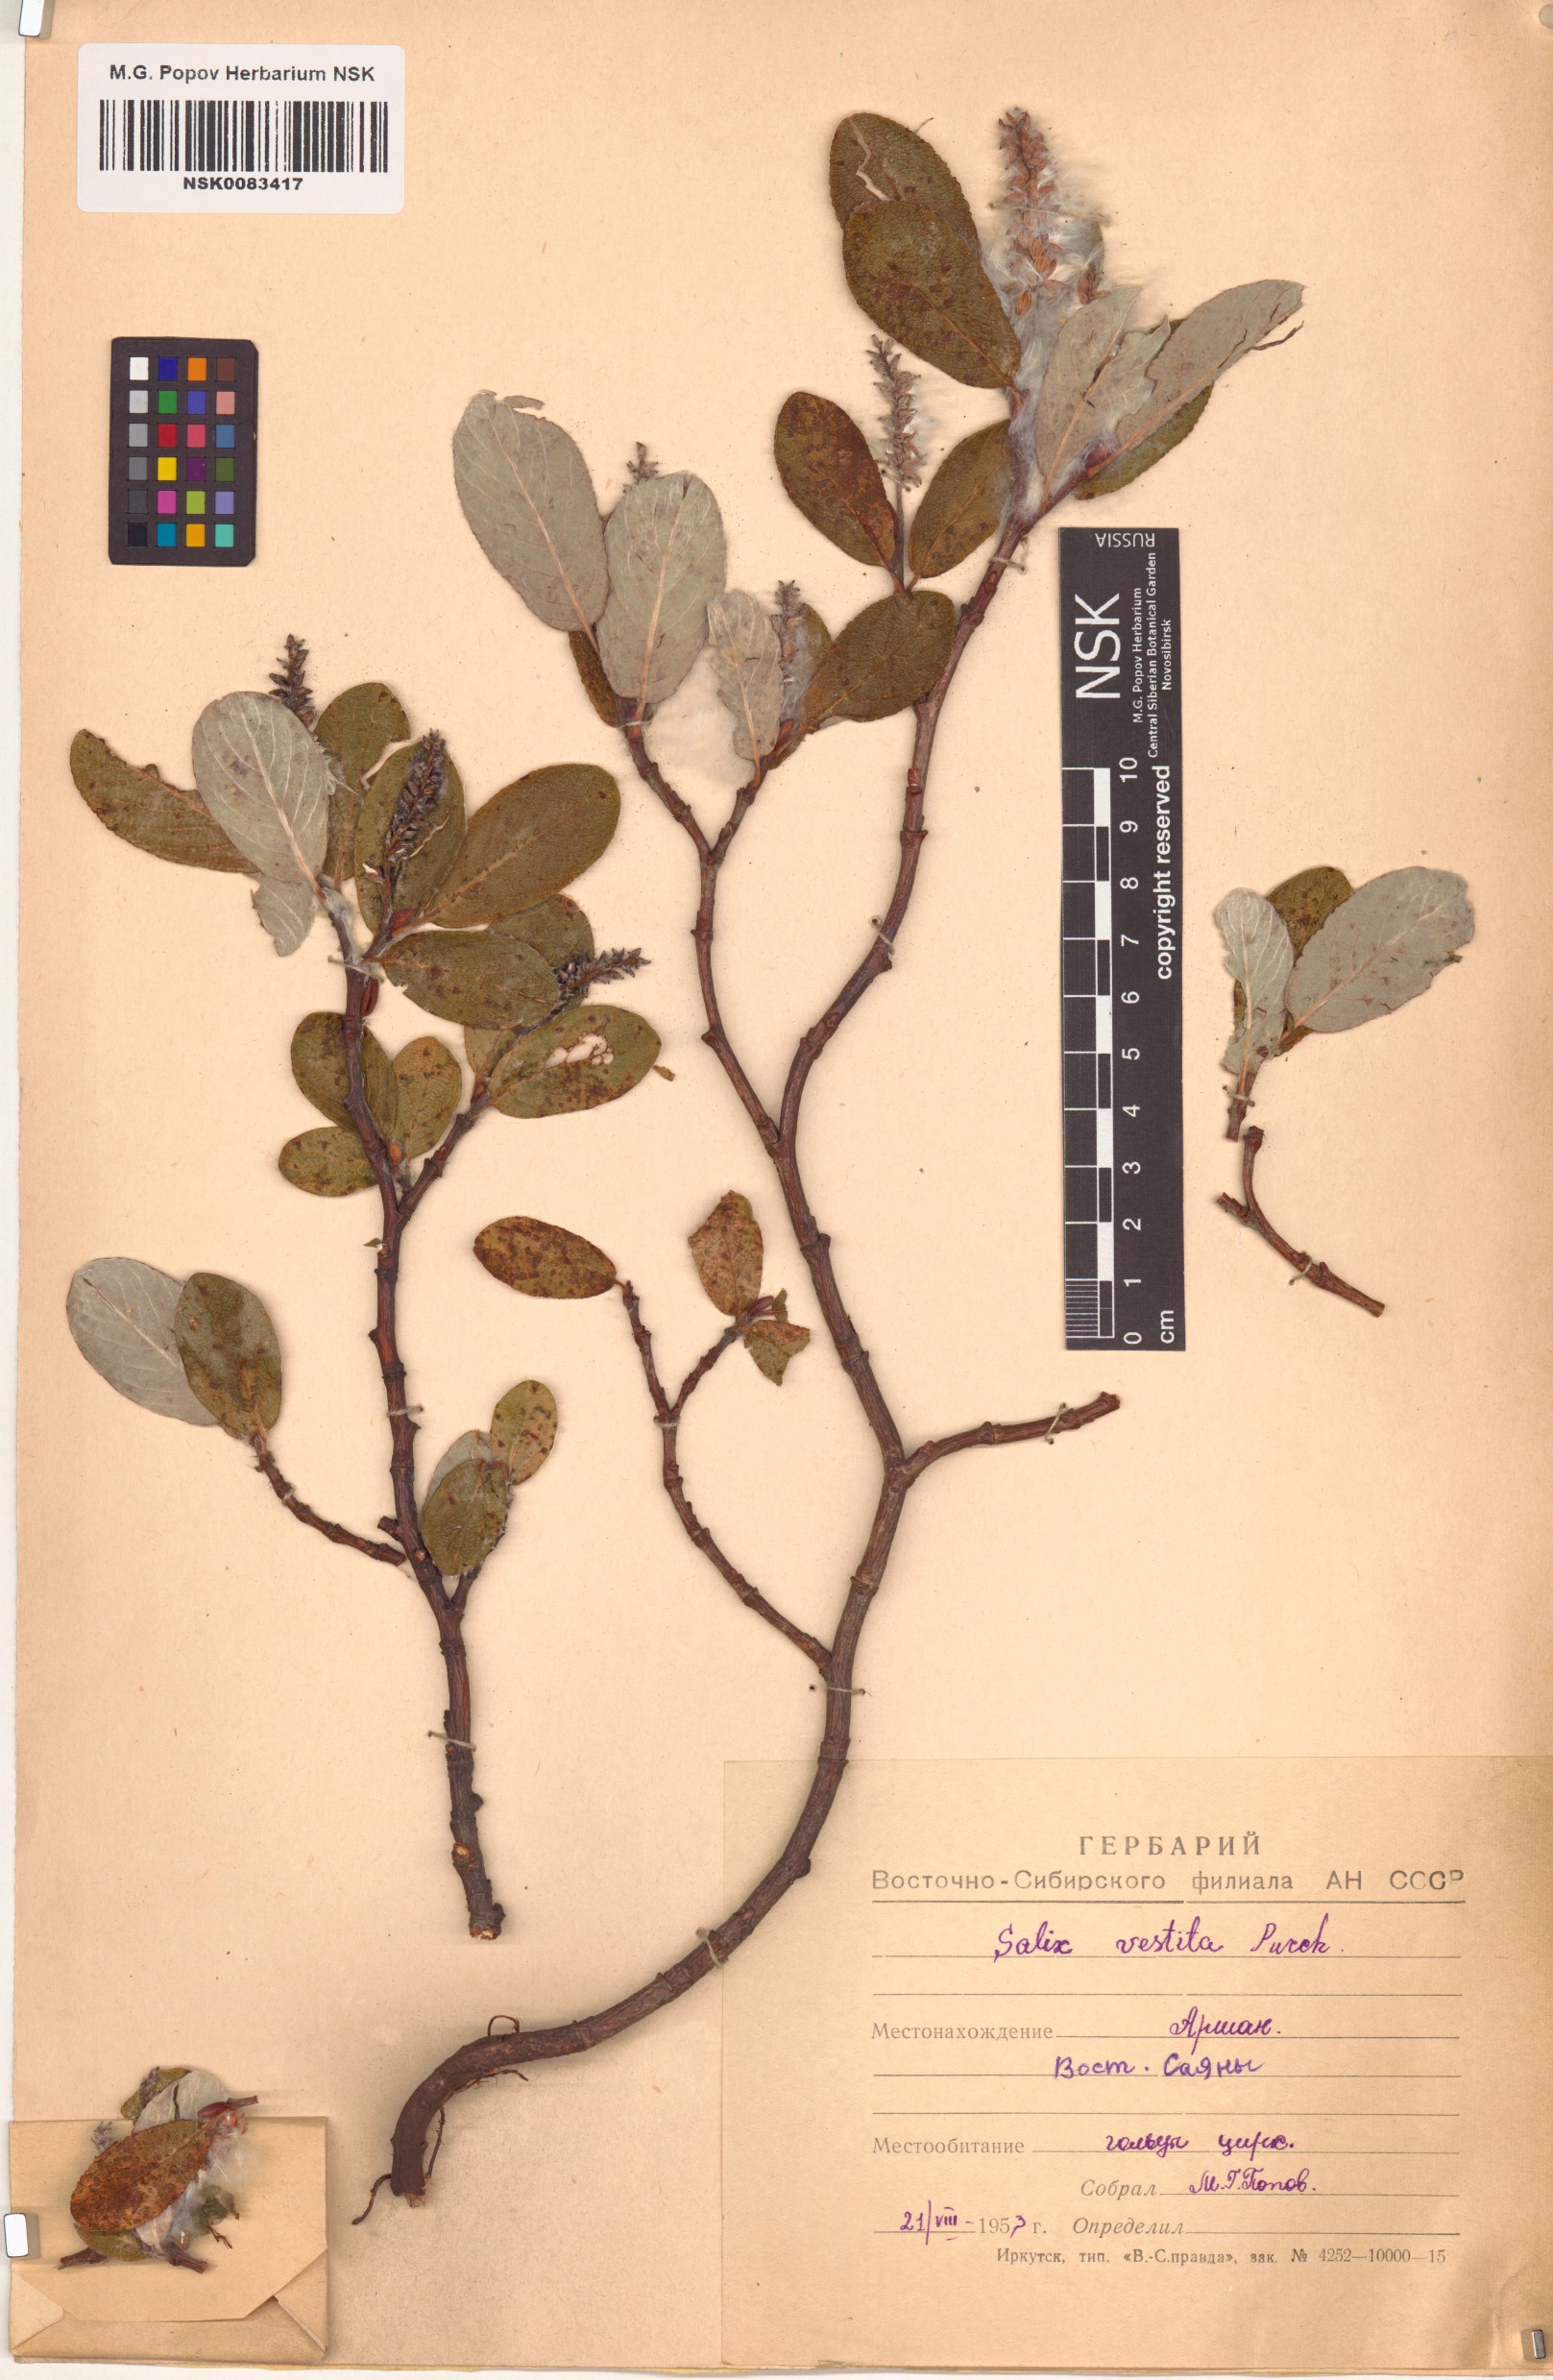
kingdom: Plantae
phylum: Tracheophyta
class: Magnoliopsida
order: Malpighiales
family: Salicaceae
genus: Salix
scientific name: Salix vestita
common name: Hairy willow
